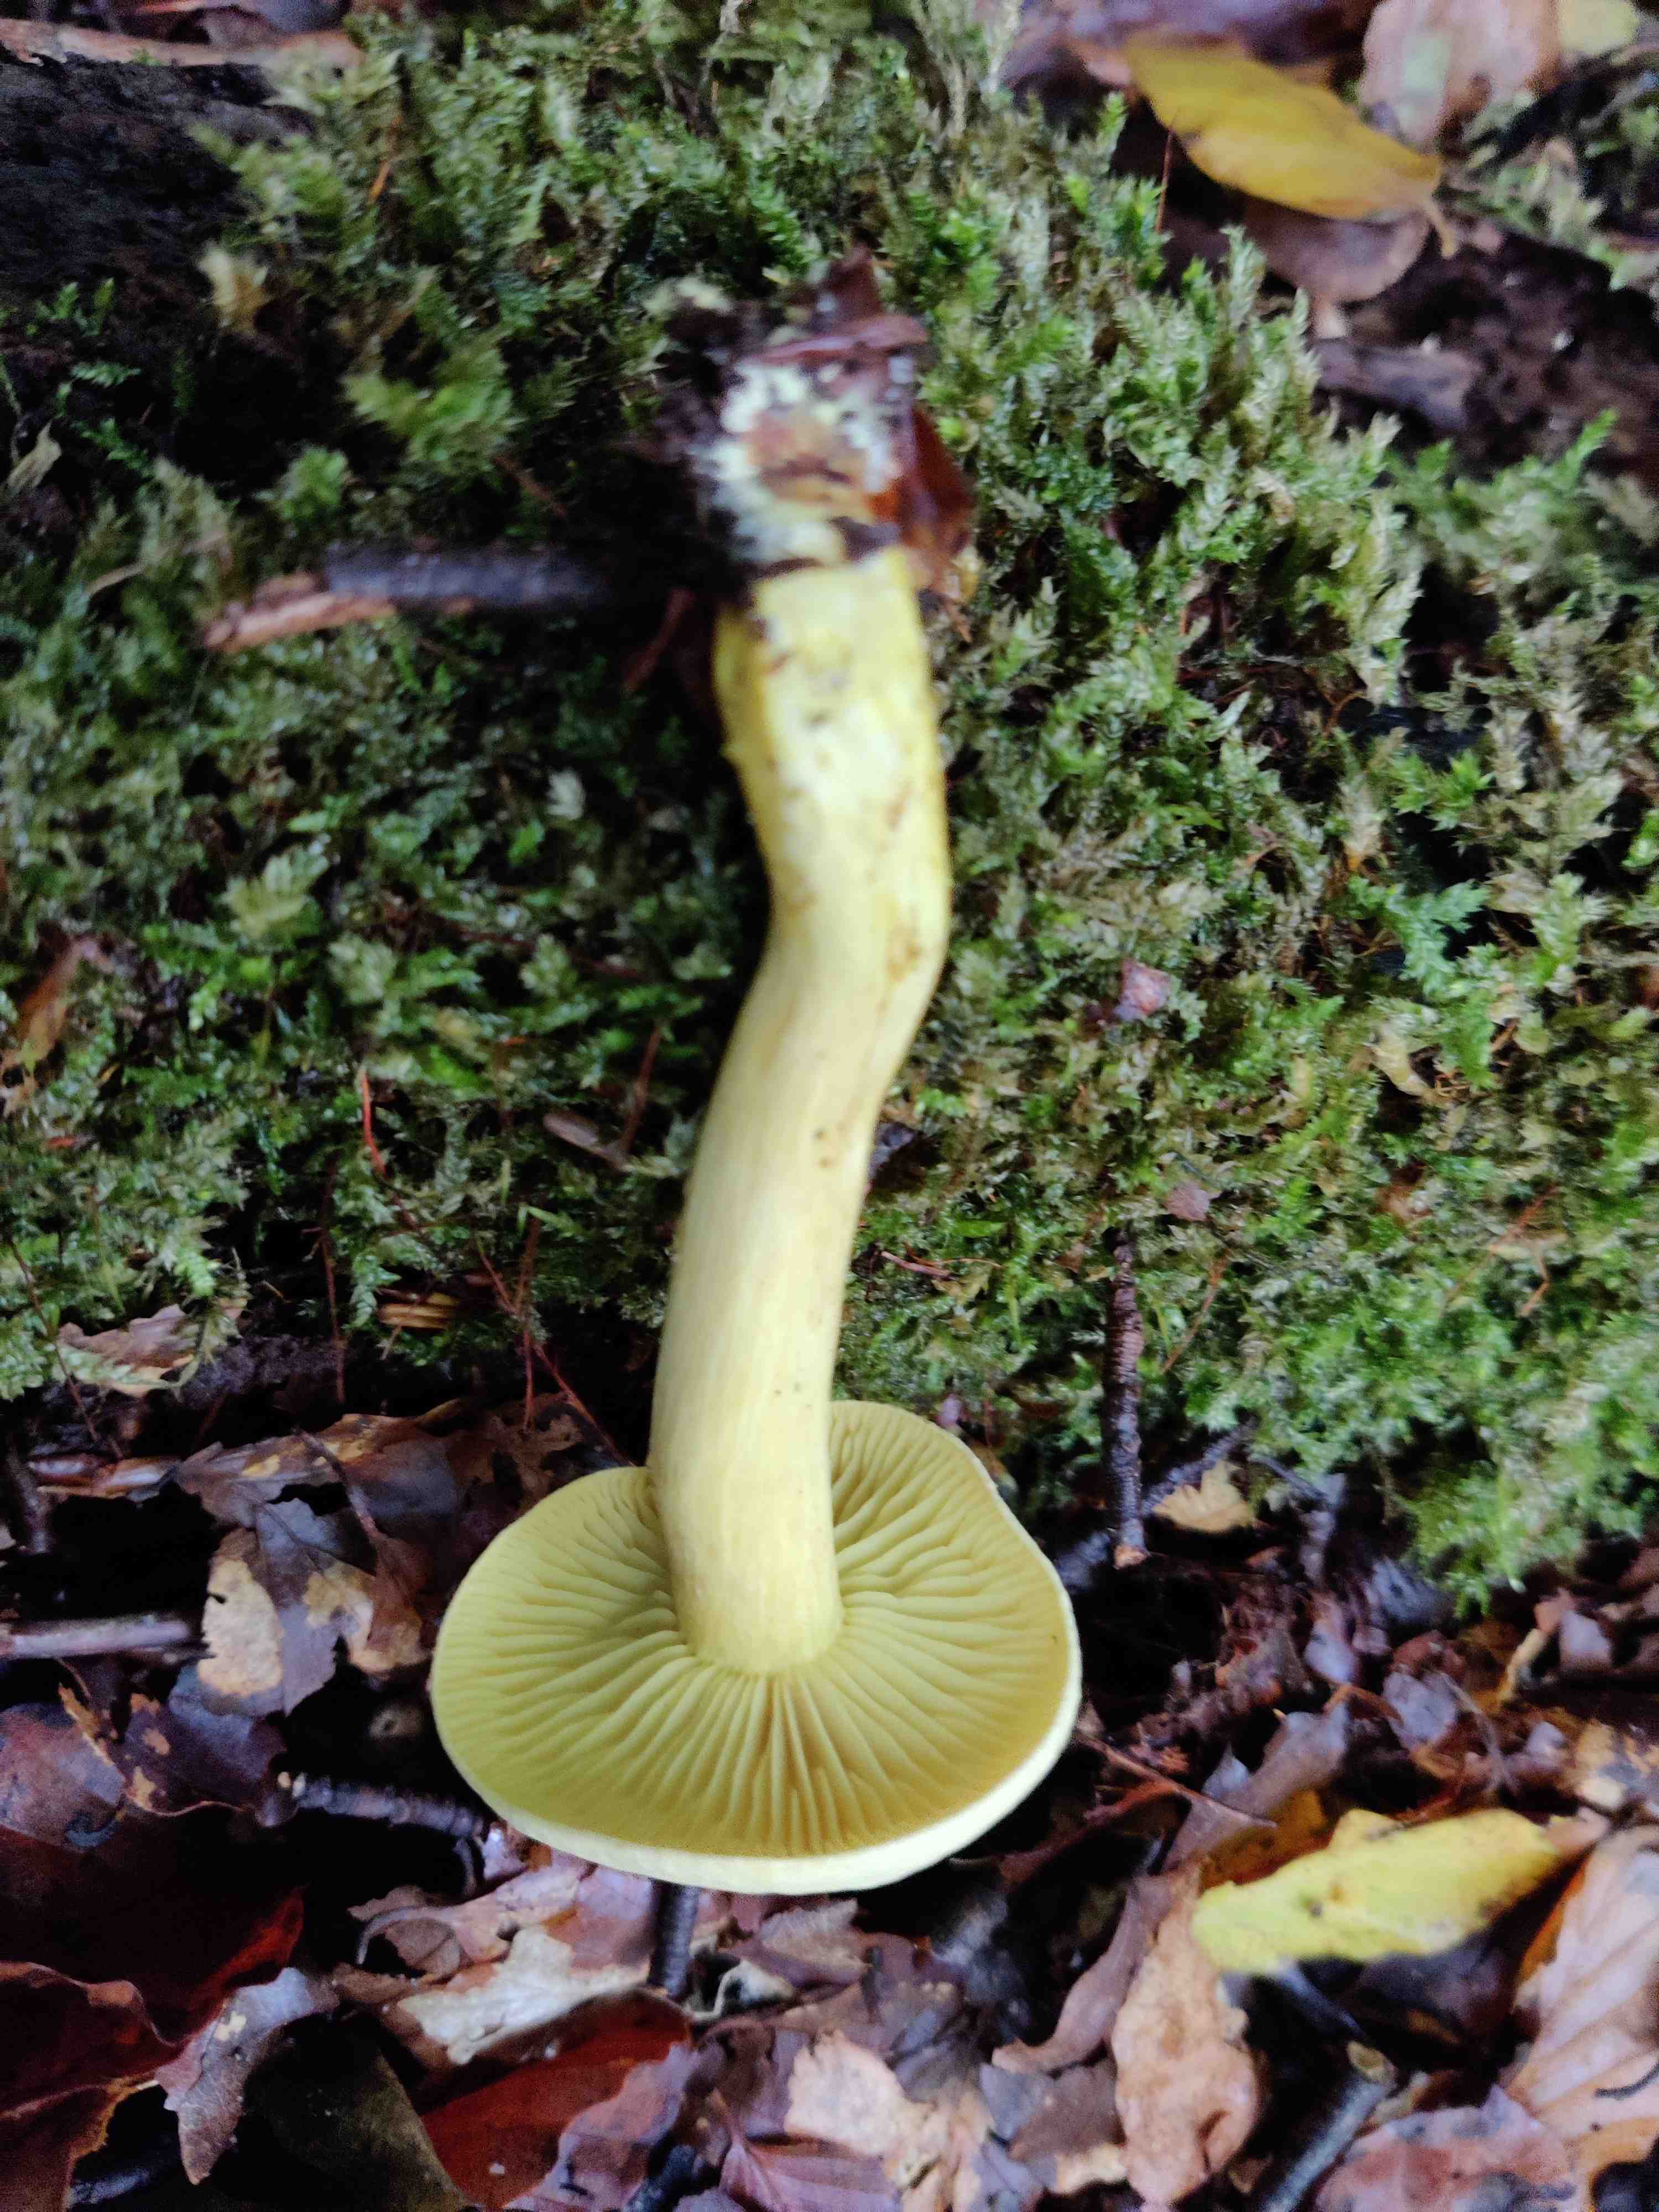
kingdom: Fungi
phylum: Basidiomycota
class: Agaricomycetes
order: Agaricales
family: Tricholomataceae
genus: Tricholoma
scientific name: Tricholoma sulphureum
